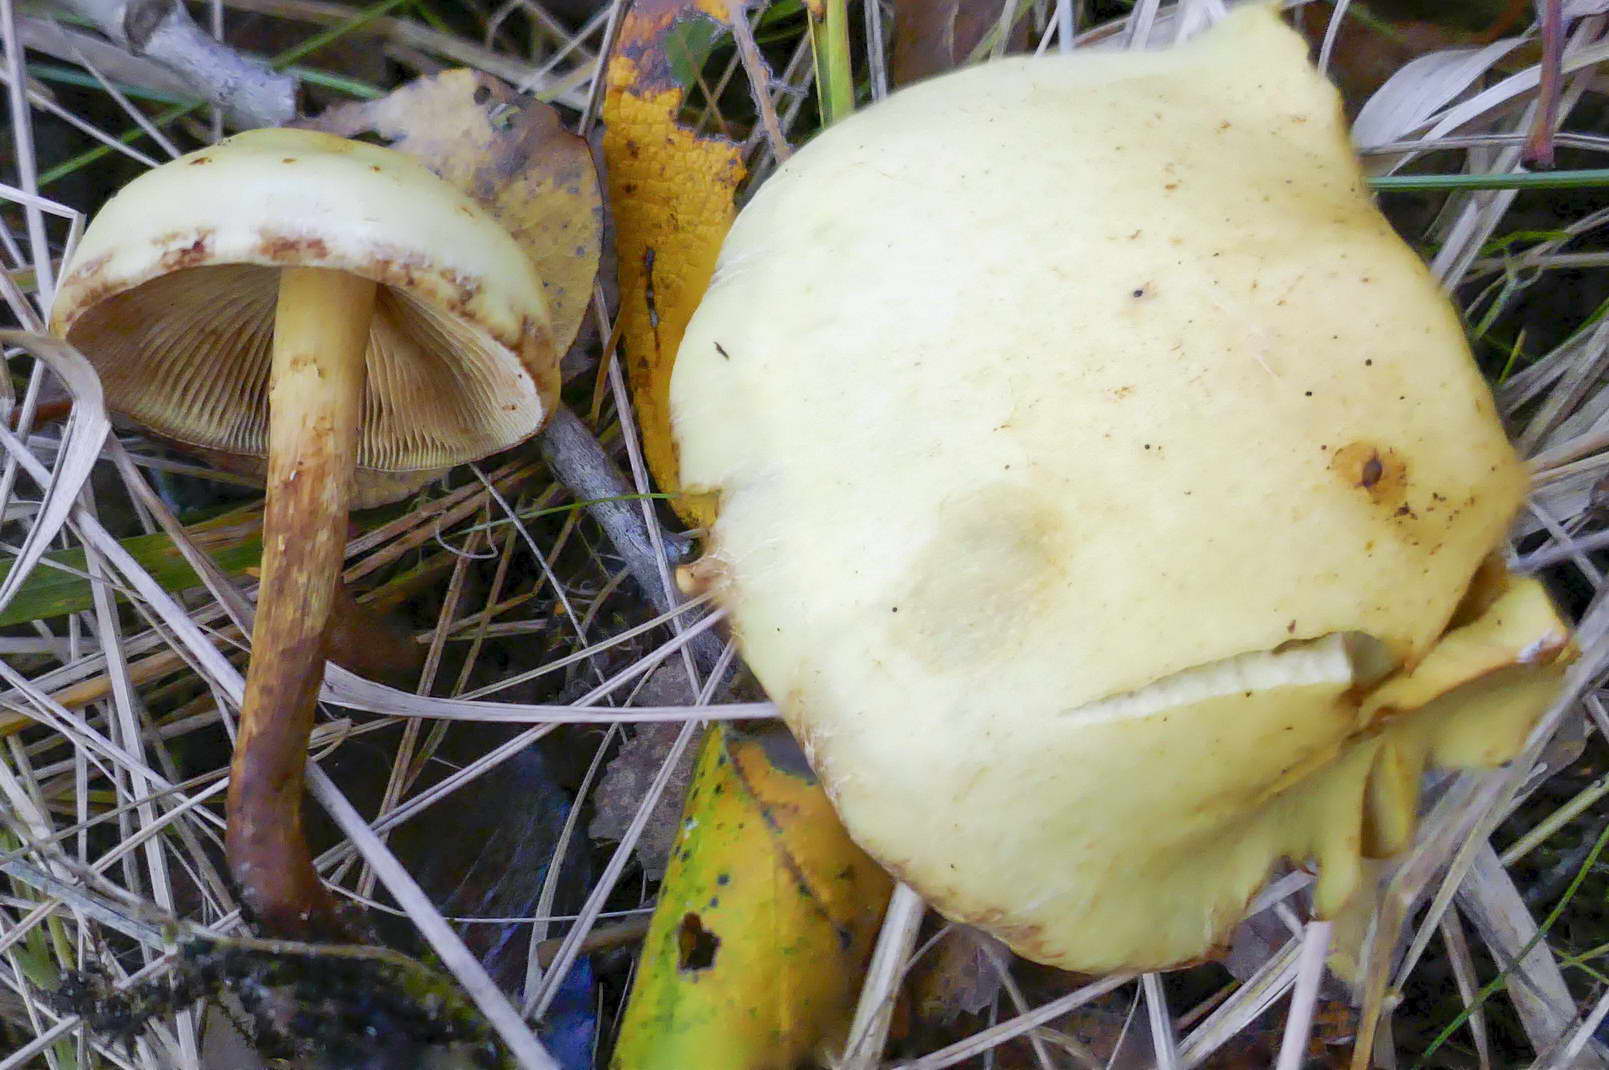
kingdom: Fungi
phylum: Basidiomycota
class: Agaricomycetes
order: Agaricales
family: Hymenogastraceae
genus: Flammula
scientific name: Flammula alnicola
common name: elle-skælhat
